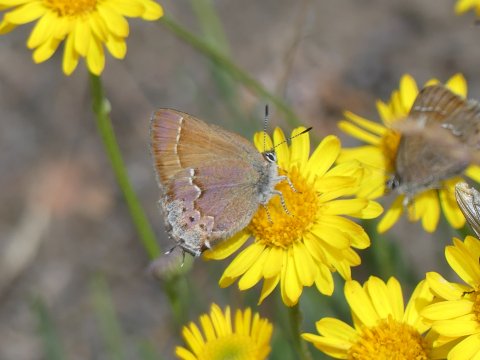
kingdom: Animalia
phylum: Arthropoda
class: Insecta
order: Lepidoptera
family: Lycaenidae
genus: Mitoura
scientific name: Mitoura gryneus
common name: Juniper Hairstreak
